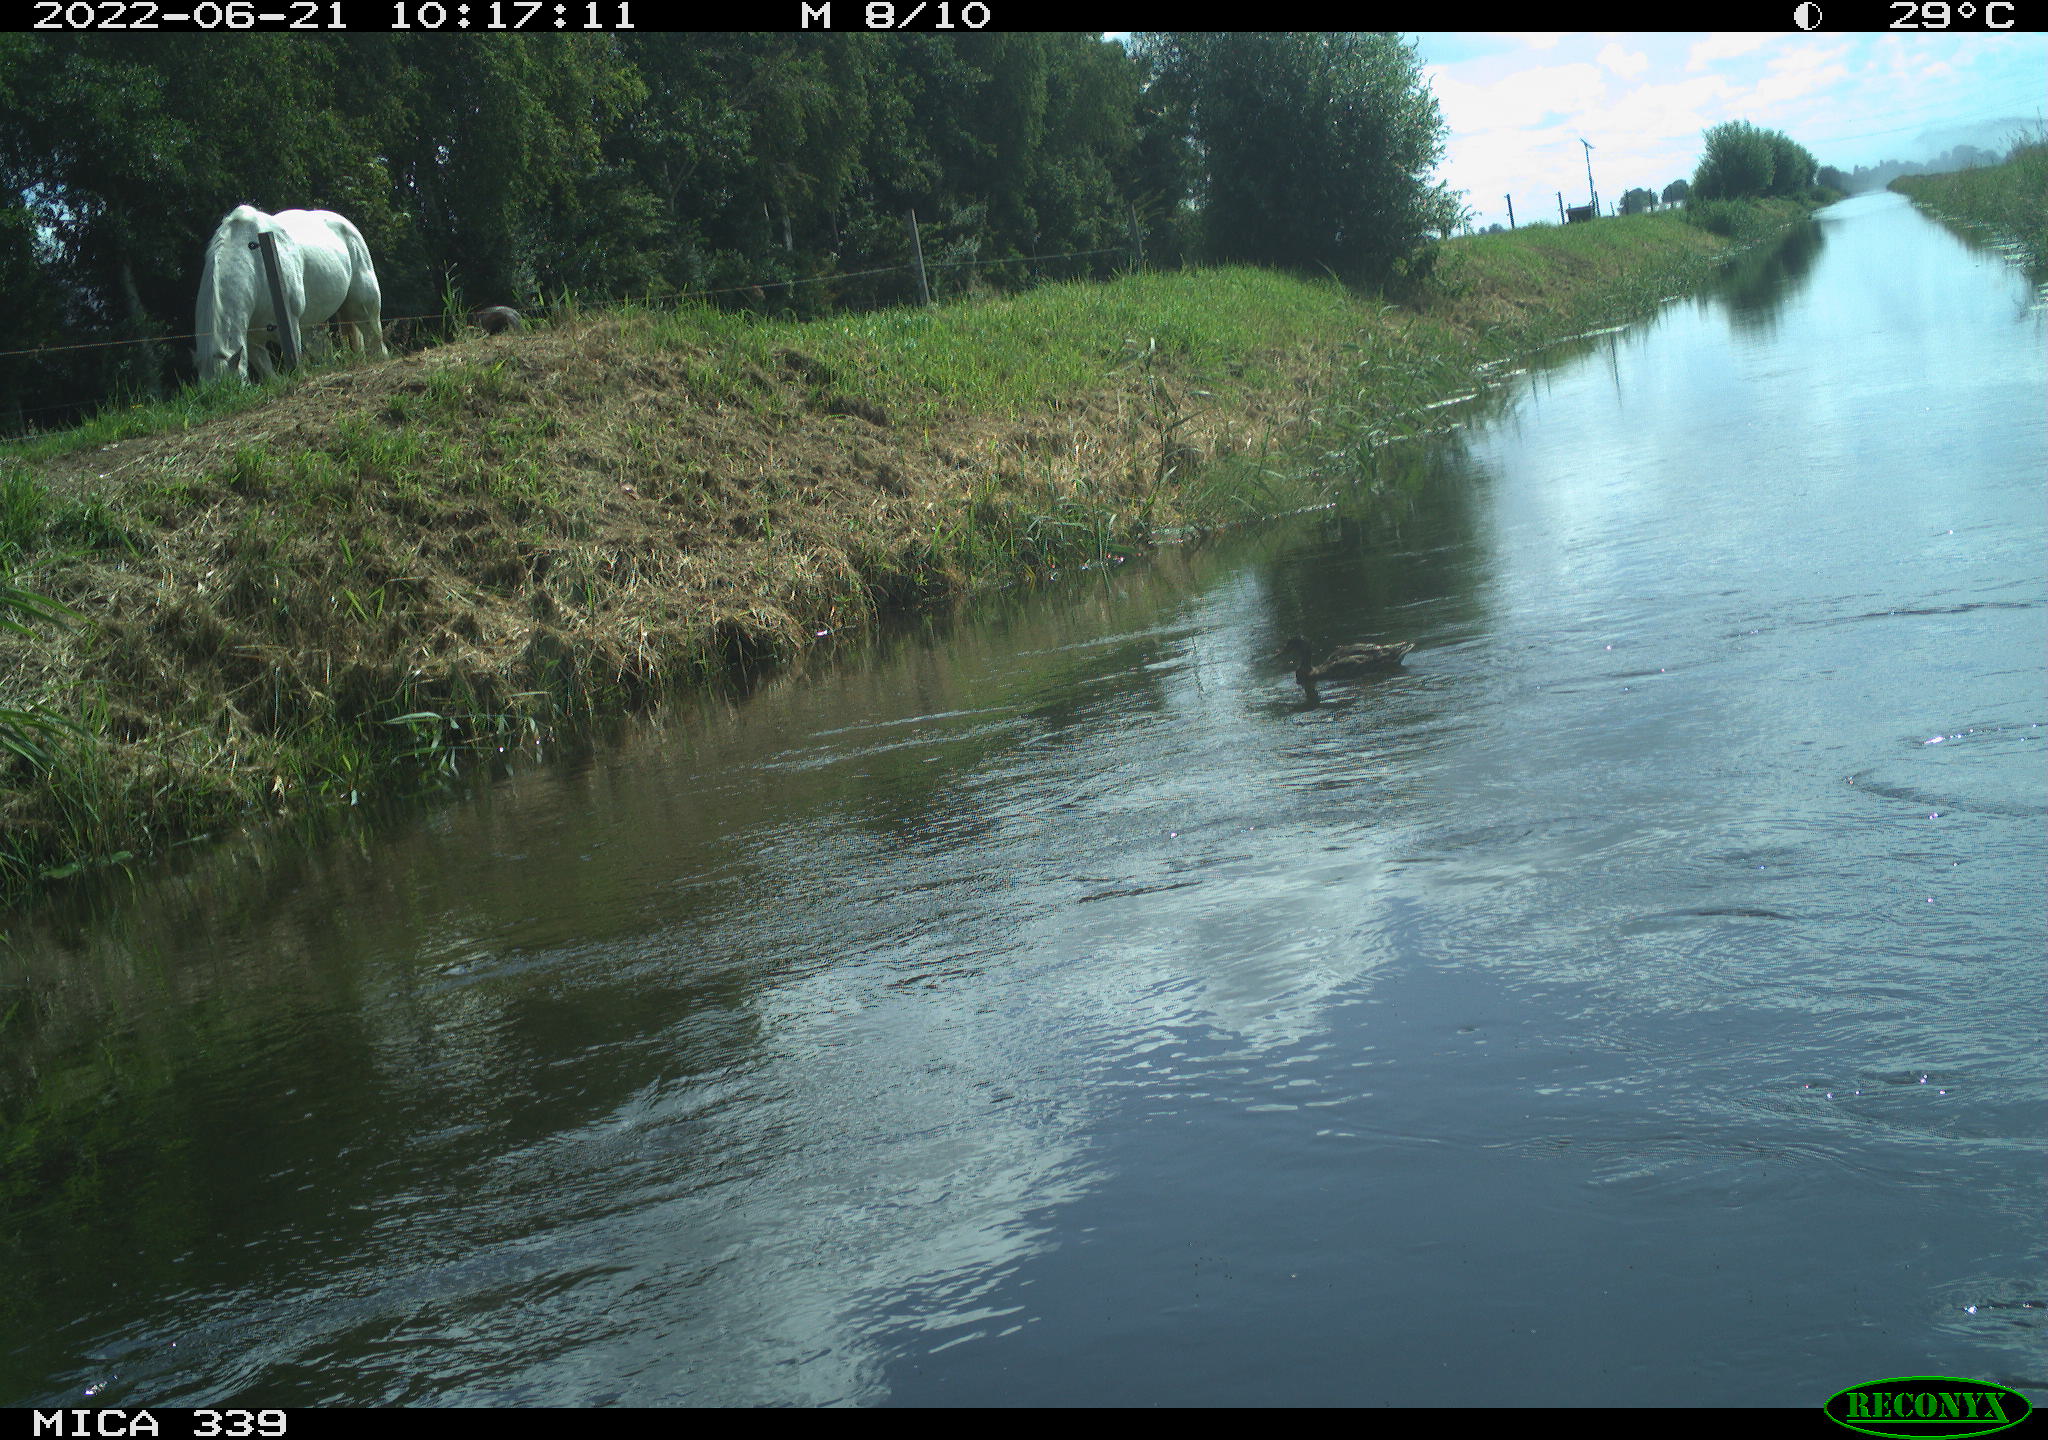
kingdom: Animalia
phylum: Chordata
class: Aves
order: Anseriformes
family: Anatidae
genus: Anas
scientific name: Anas platyrhynchos
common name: Mallard
